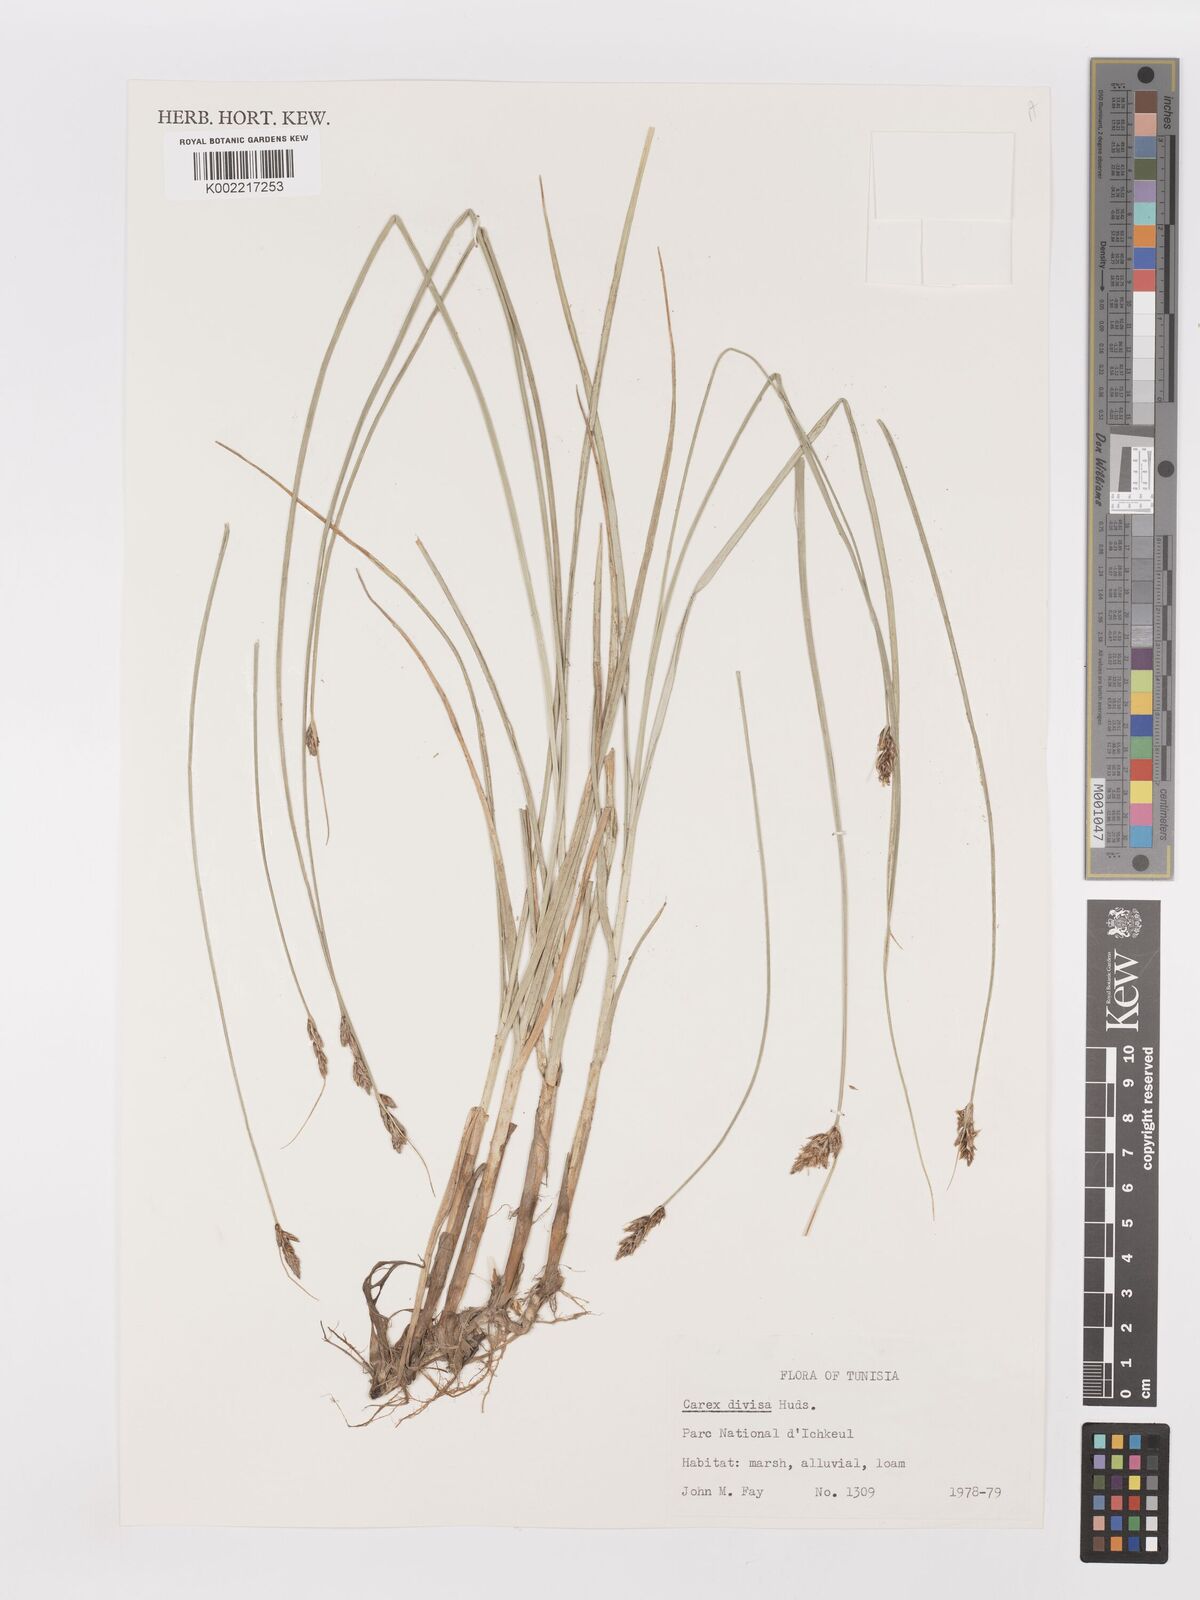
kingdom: Plantae
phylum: Tracheophyta
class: Liliopsida
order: Poales
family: Cyperaceae
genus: Carex
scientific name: Carex divisa
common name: Divided sedge
